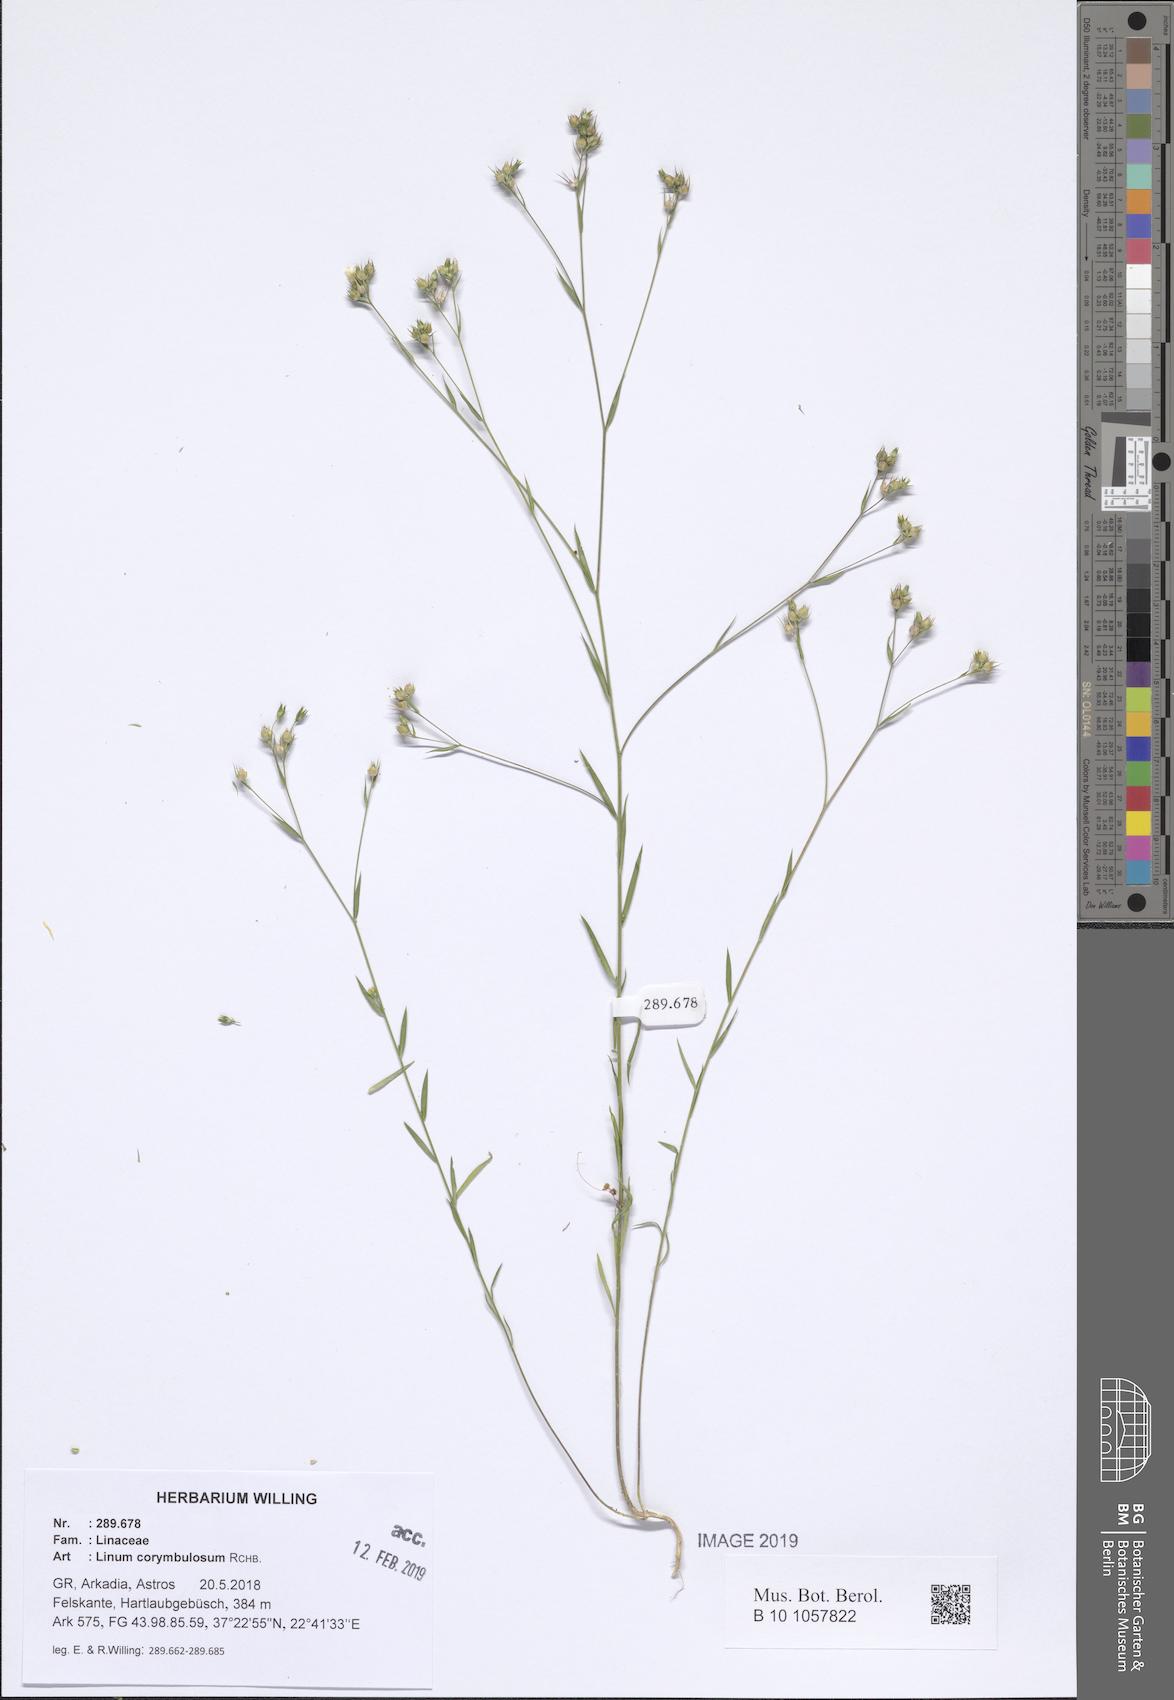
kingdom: Plantae
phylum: Tracheophyta
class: Magnoliopsida
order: Malpighiales
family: Linaceae
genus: Linum
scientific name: Linum corymbulosum
